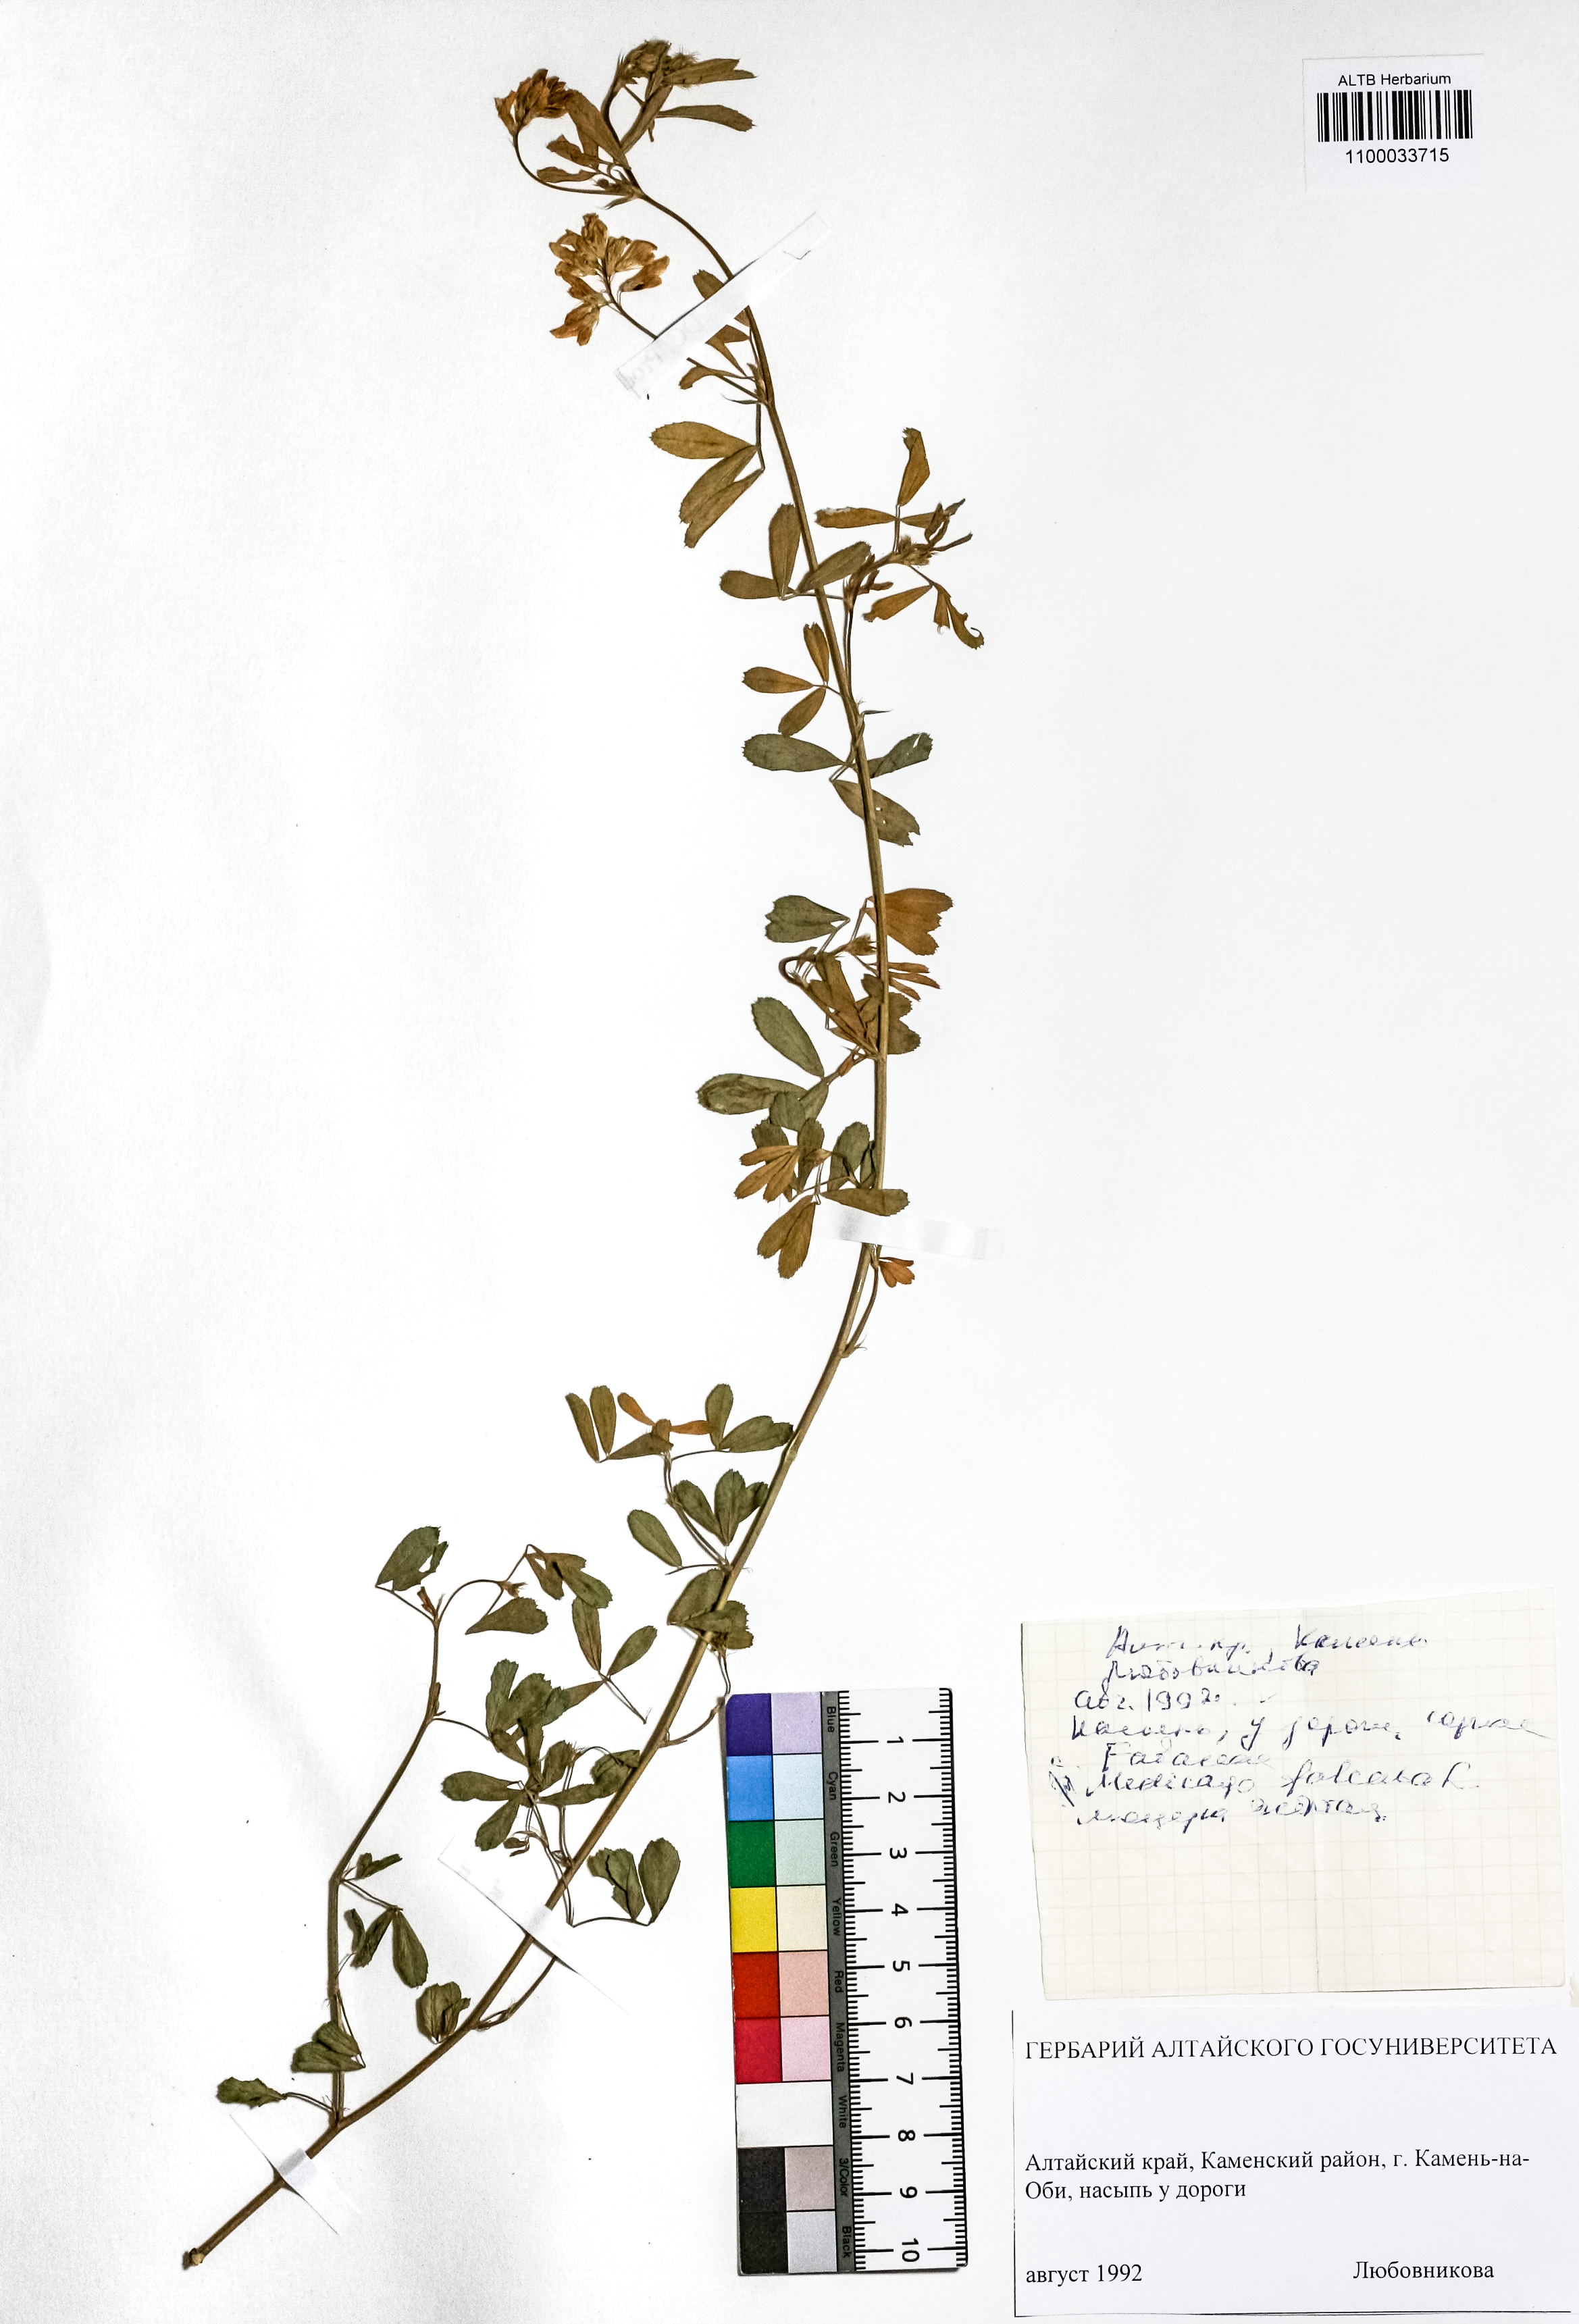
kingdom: Plantae
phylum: Tracheophyta
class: Magnoliopsida
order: Fabales
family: Fabaceae
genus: Medicago
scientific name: Medicago falcata
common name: Sickle medick
